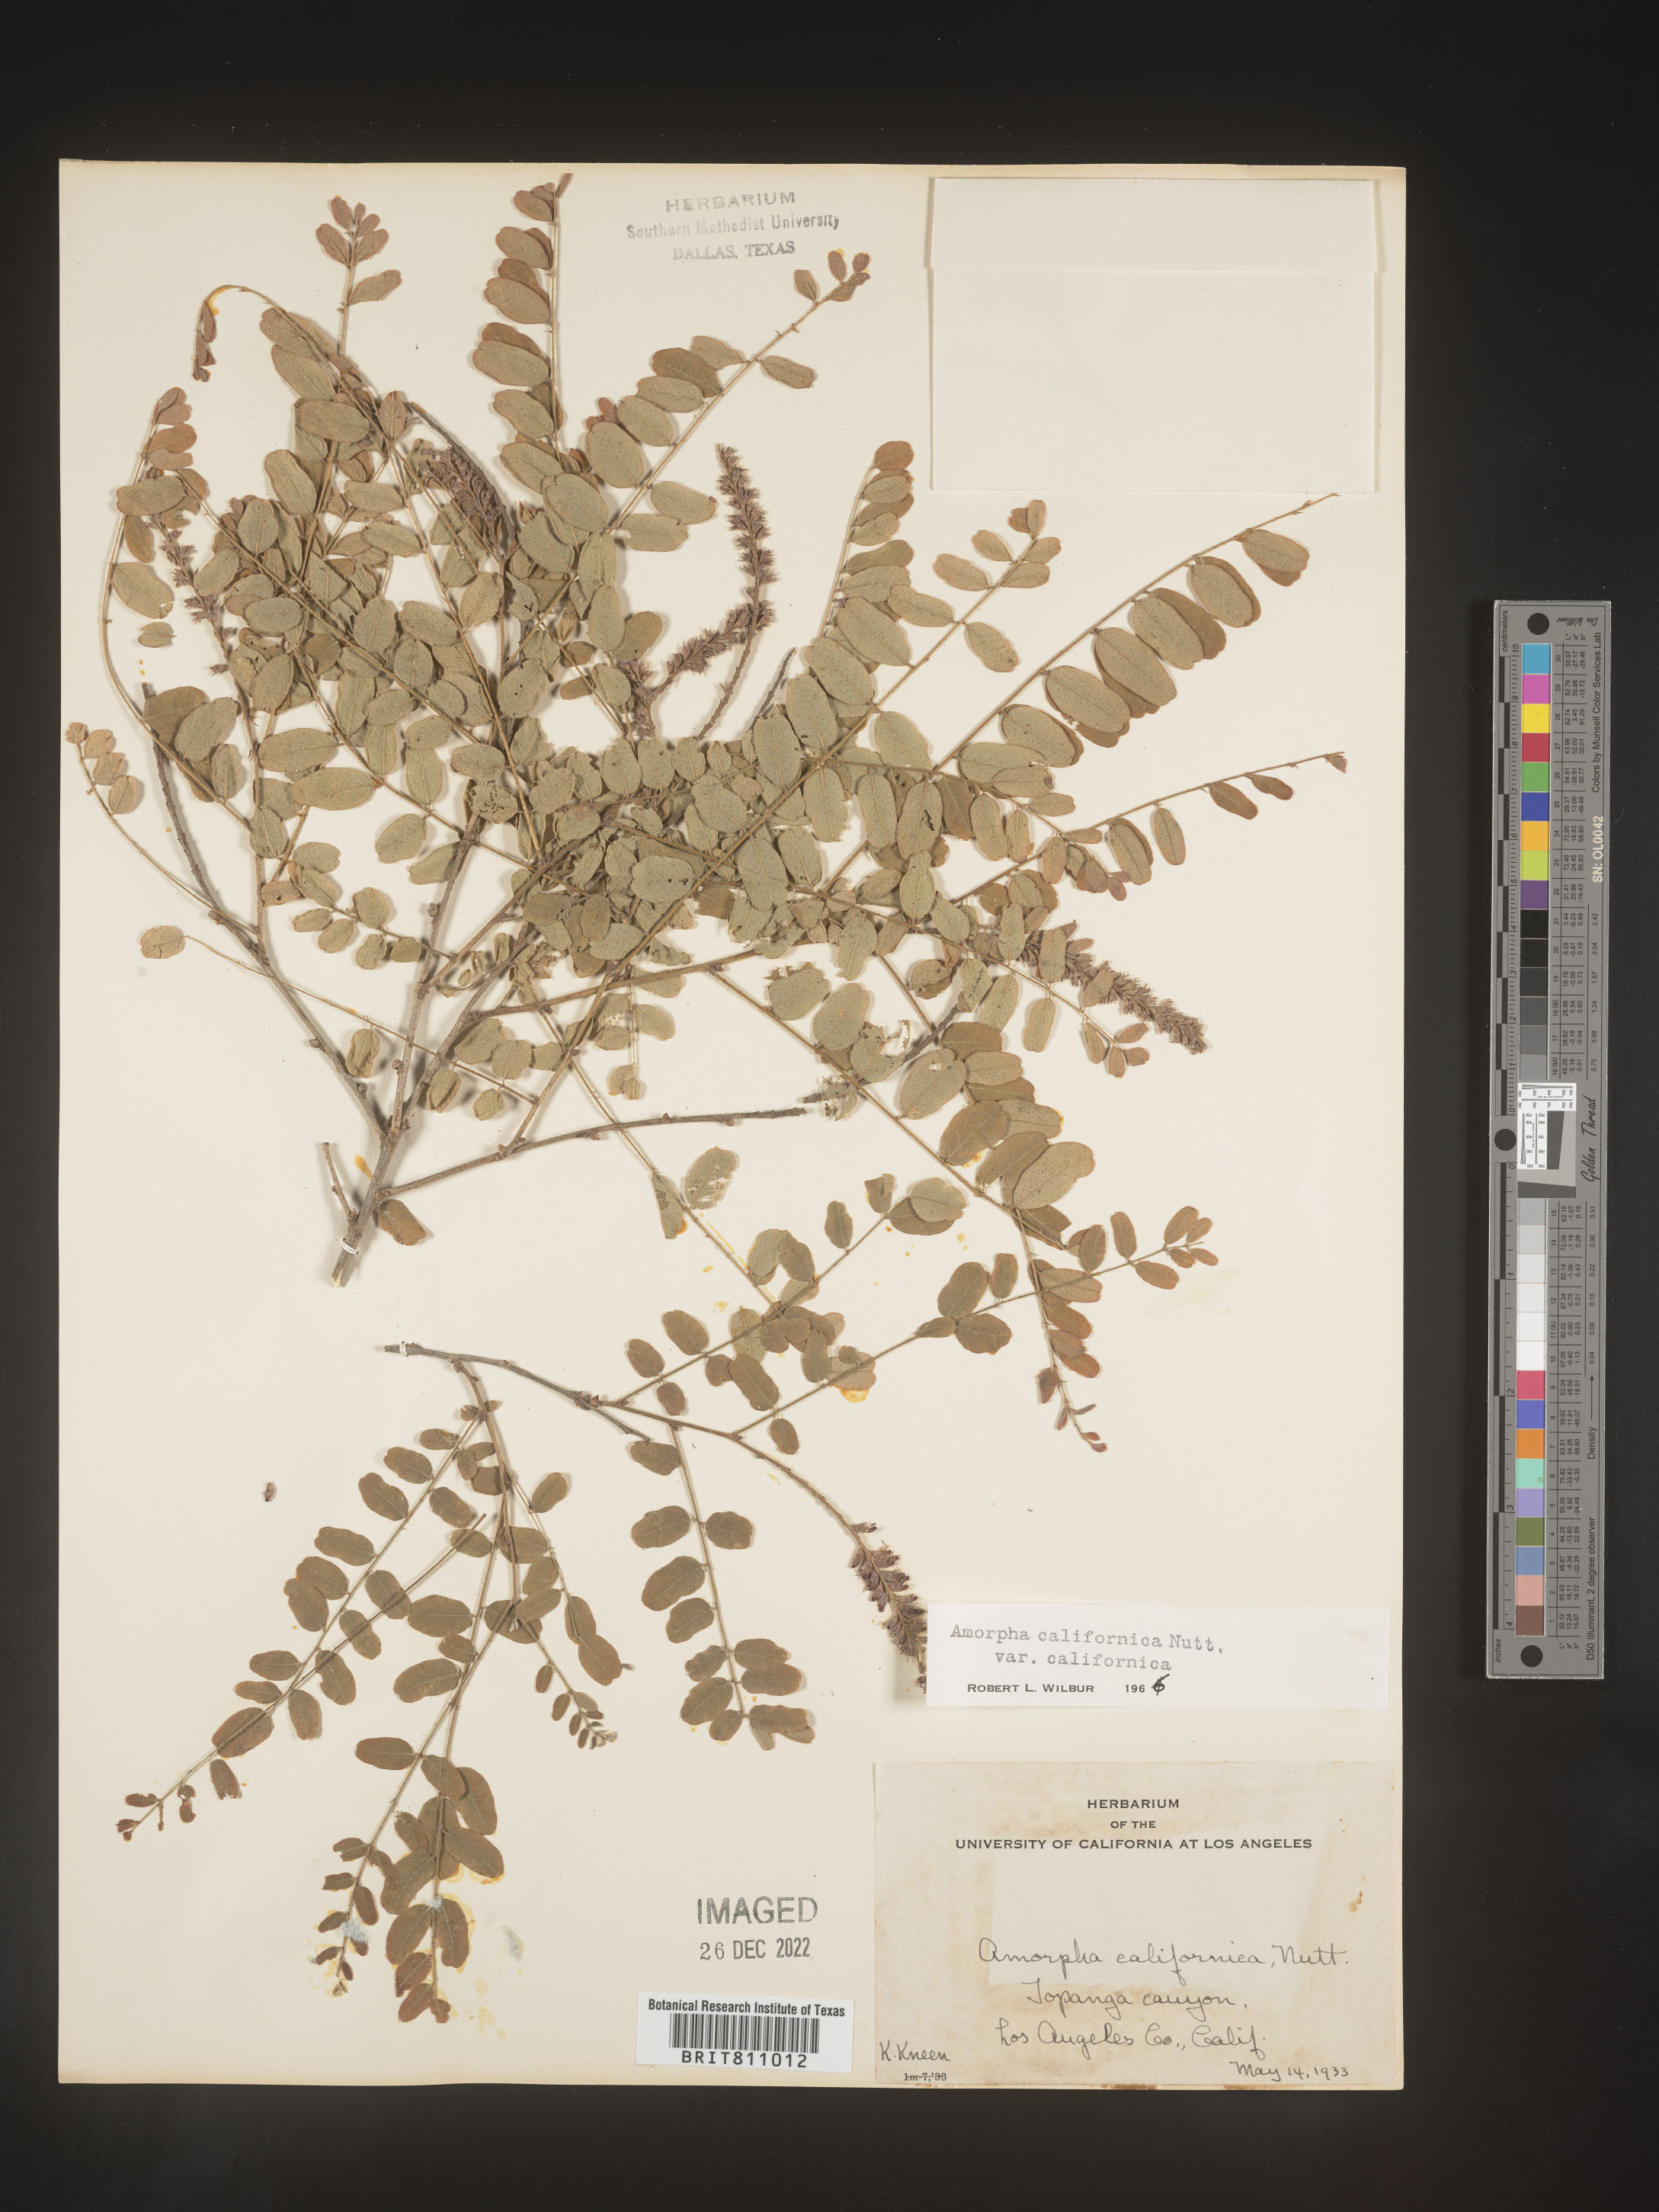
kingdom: Plantae
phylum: Tracheophyta
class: Magnoliopsida
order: Fabales
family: Fabaceae
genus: Amorpha
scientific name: Amorpha californica
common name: California indigobush
